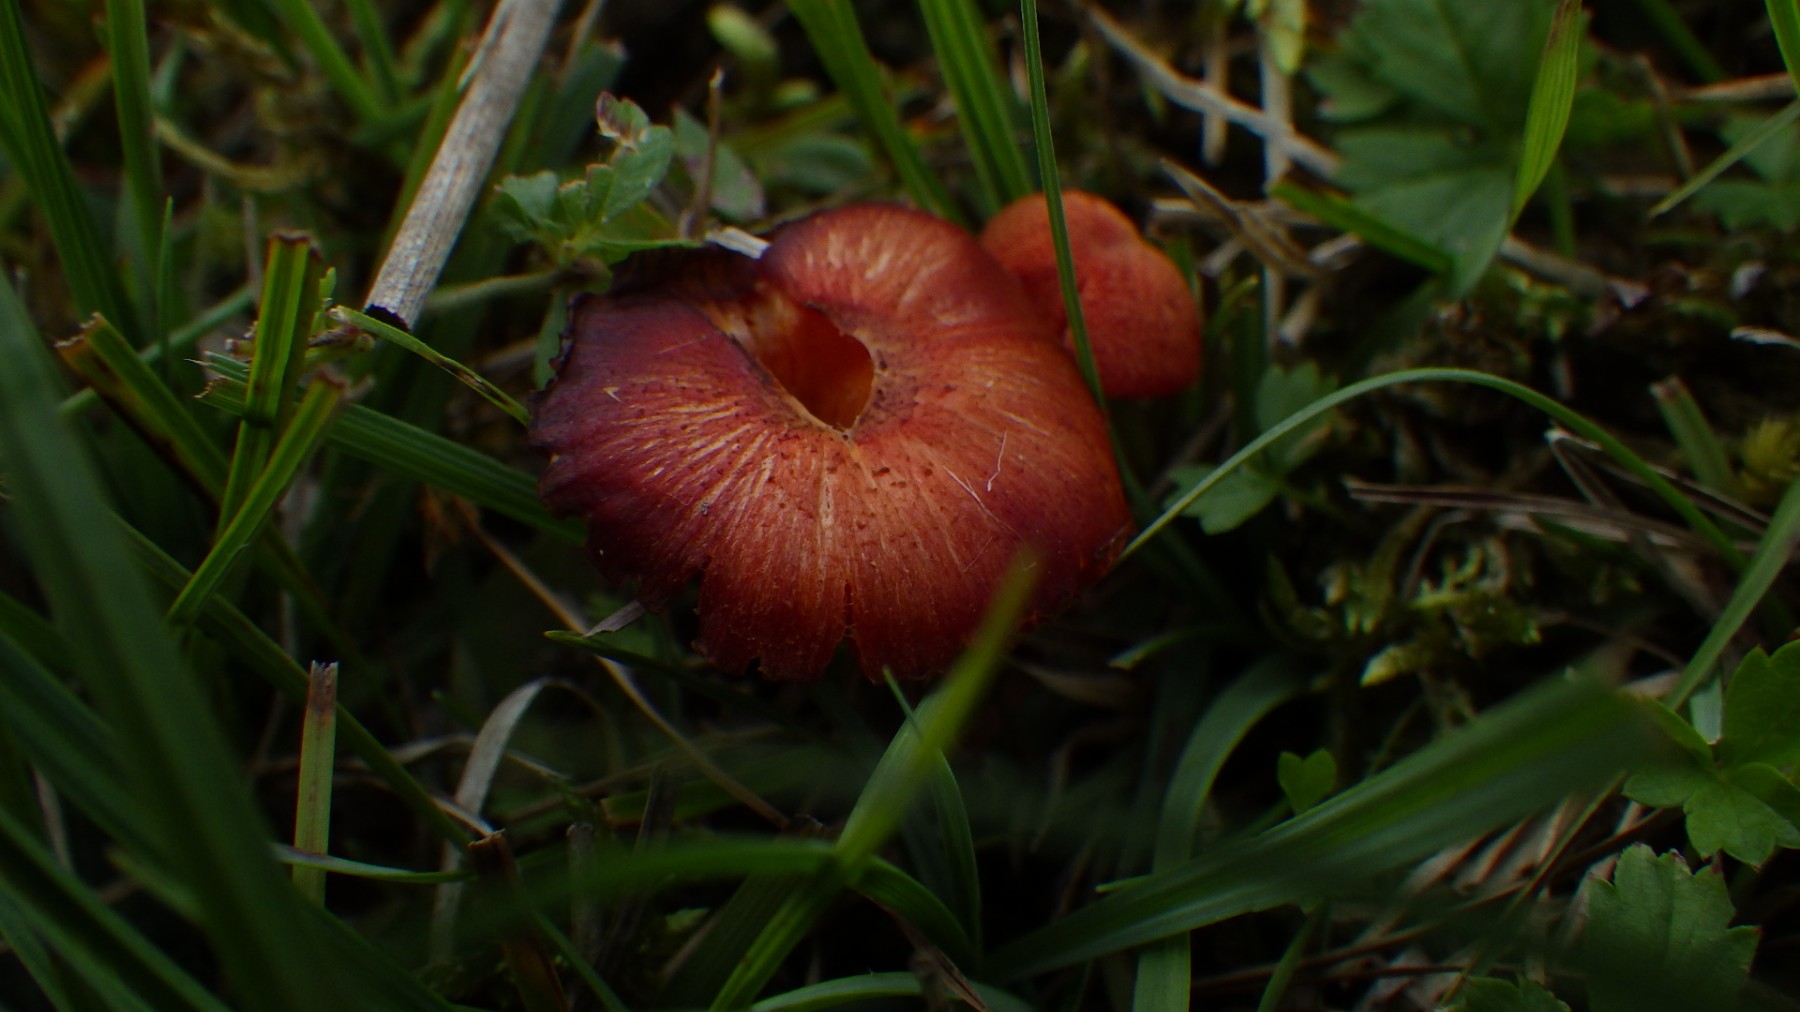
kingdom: Fungi
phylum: Basidiomycota
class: Agaricomycetes
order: Agaricales
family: Hygrophoraceae
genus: Hygrocybe
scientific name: Hygrocybe helobia
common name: hvidløgs-vokshat
